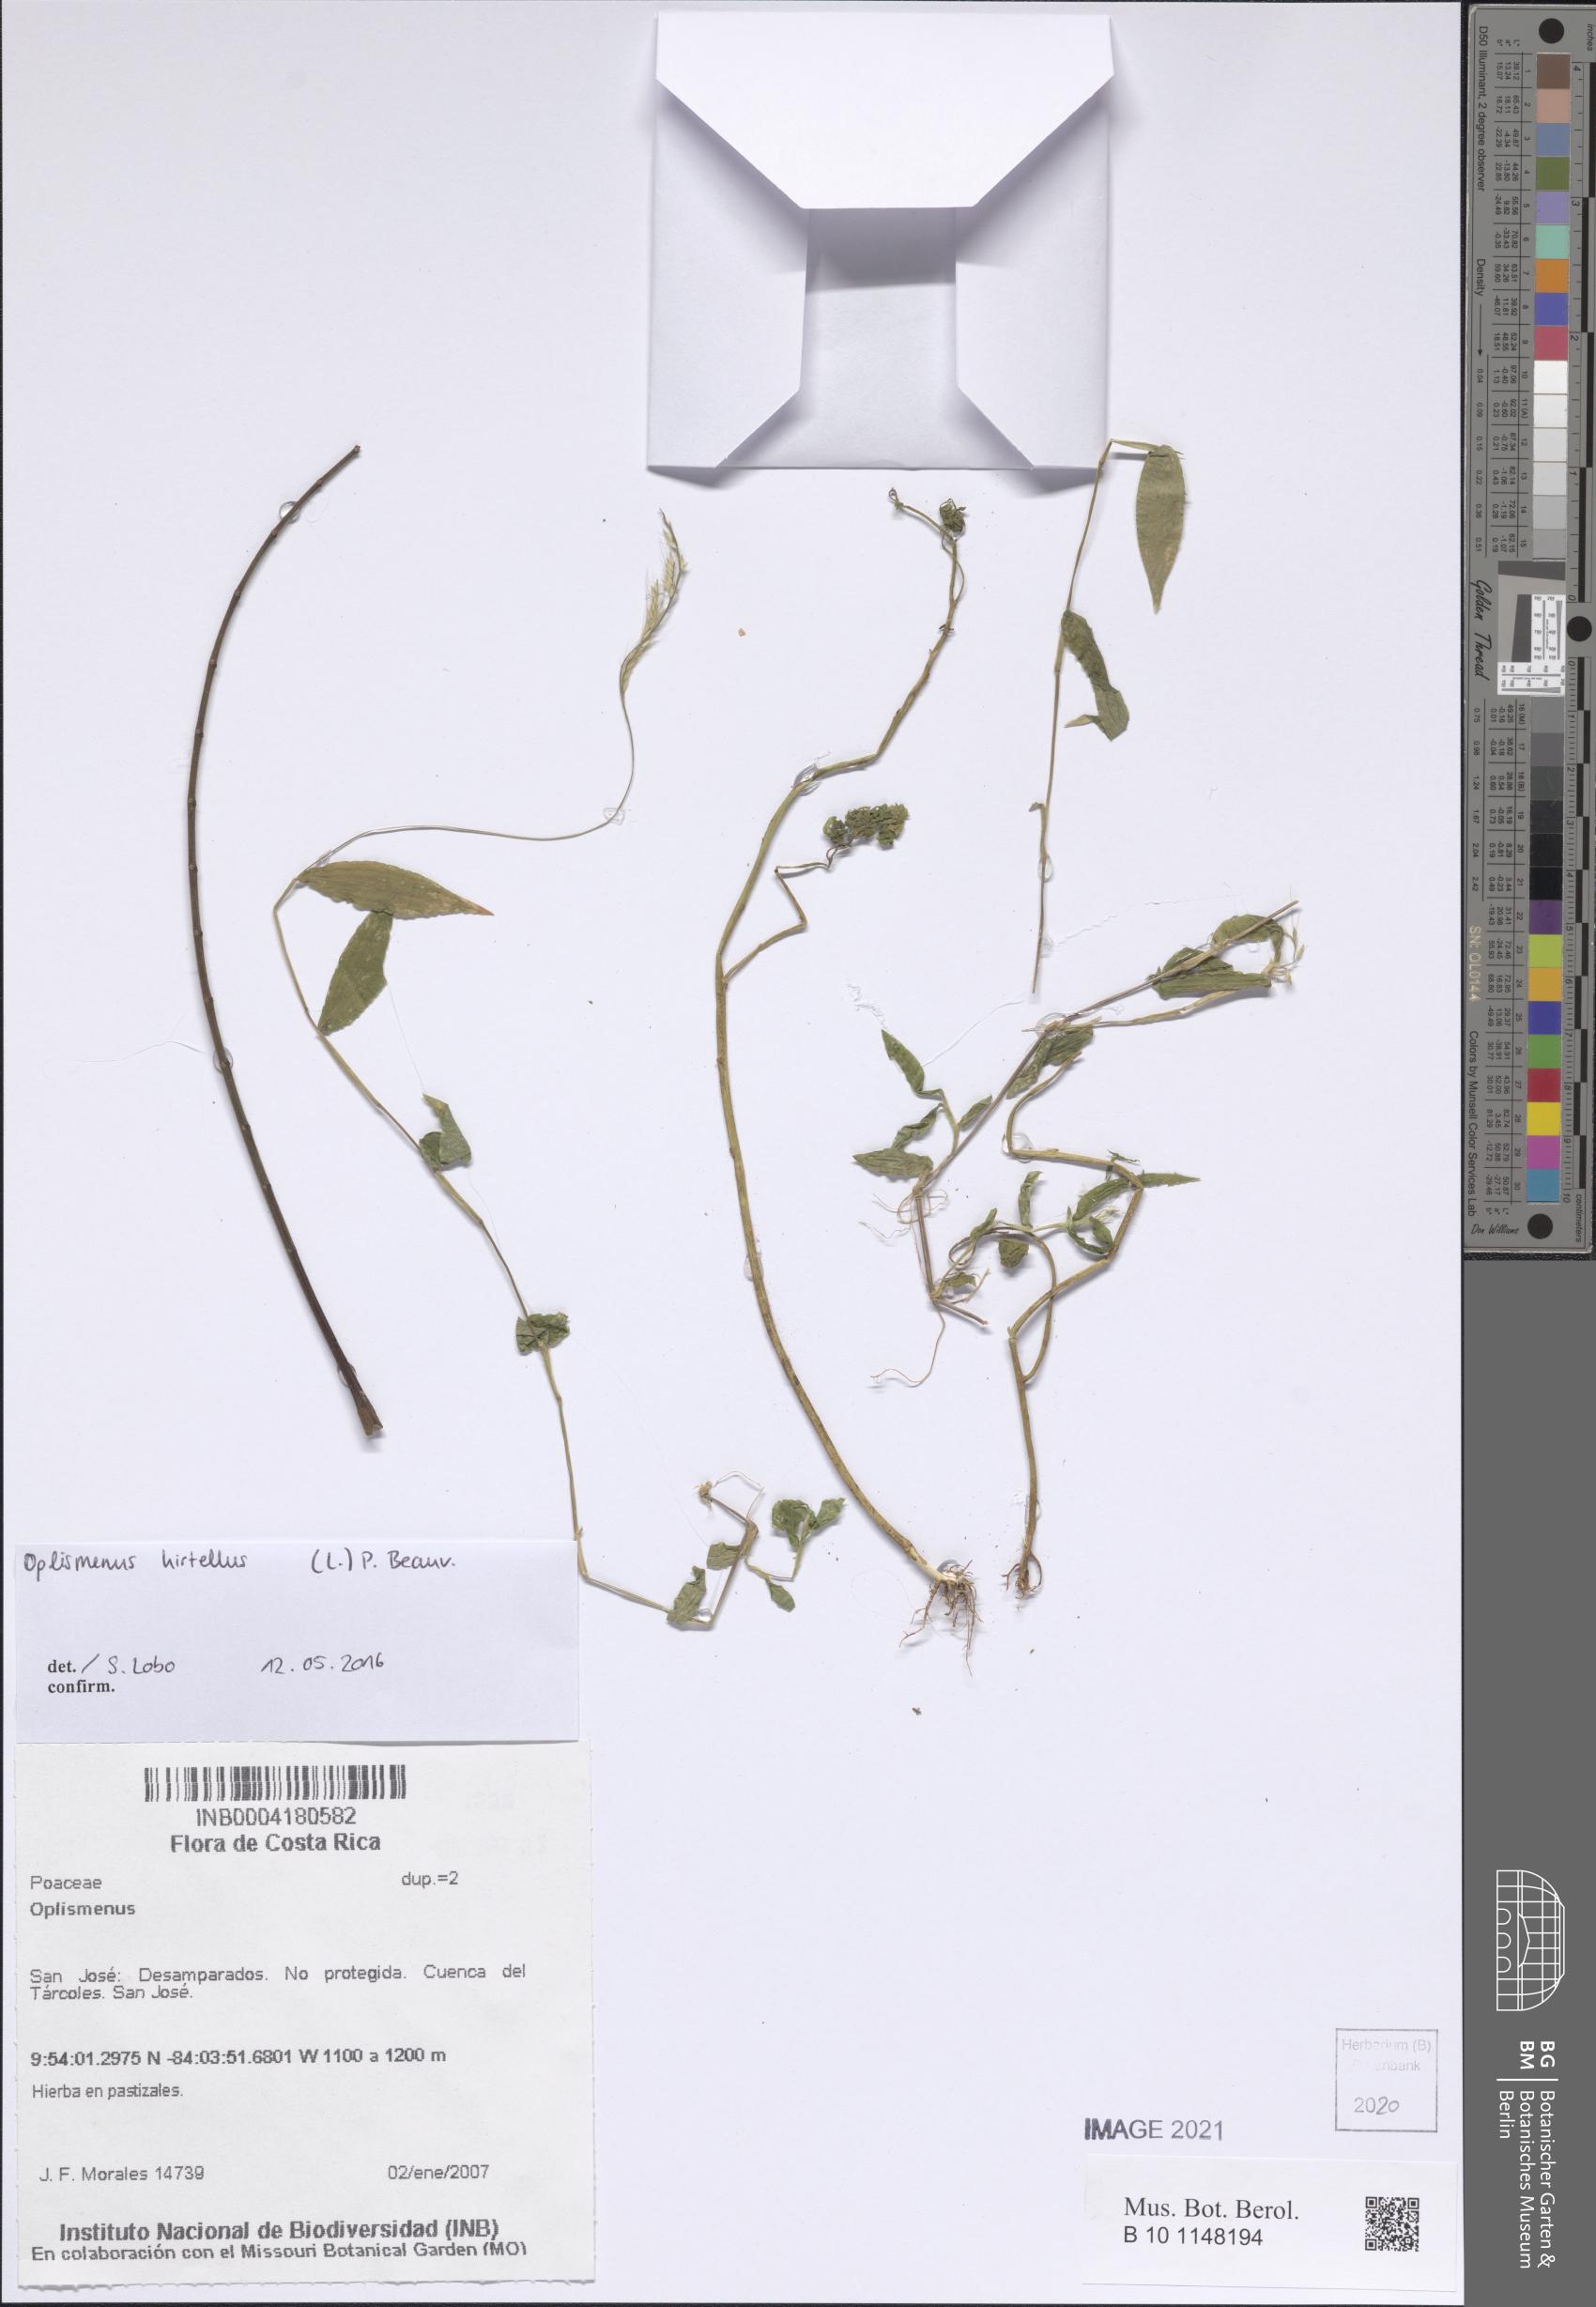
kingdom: Plantae
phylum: Tracheophyta
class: Liliopsida
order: Poales
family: Poaceae
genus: Oplismenus
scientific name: Oplismenus
